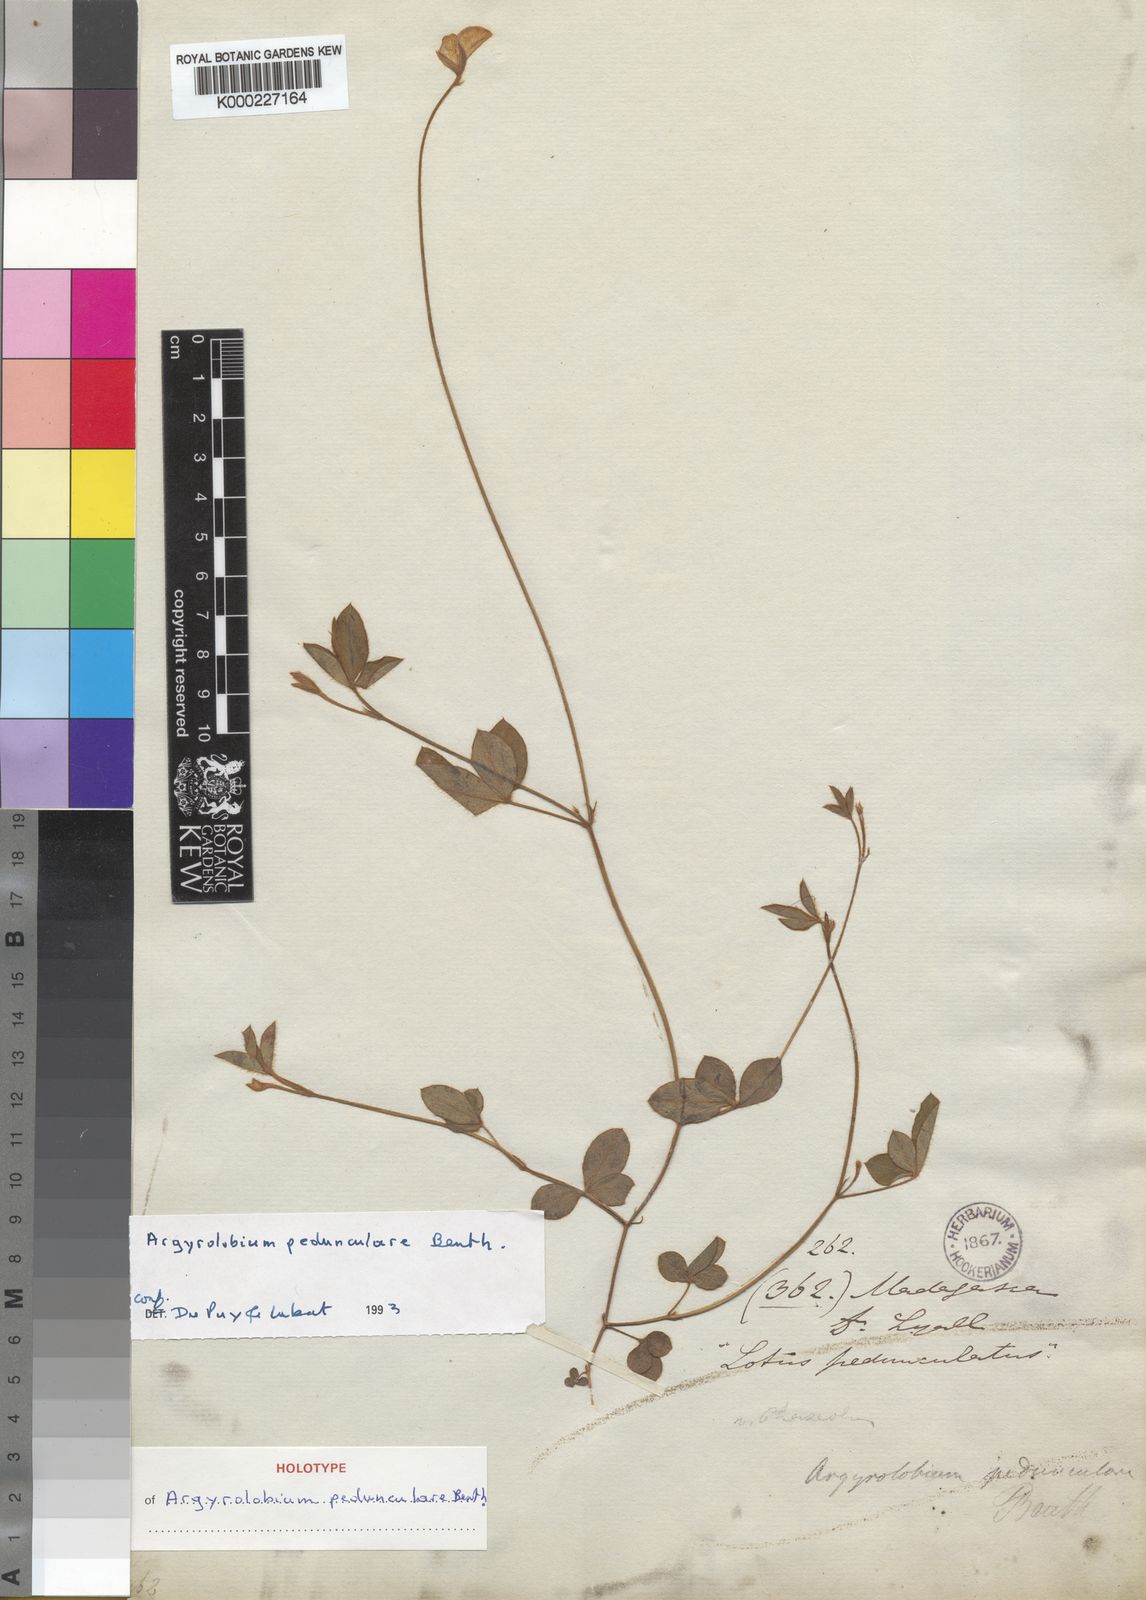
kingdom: Plantae
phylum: Tracheophyta
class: Magnoliopsida
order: Fabales
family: Fabaceae
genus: Argyrolobium
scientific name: Argyrolobium pedunculare
